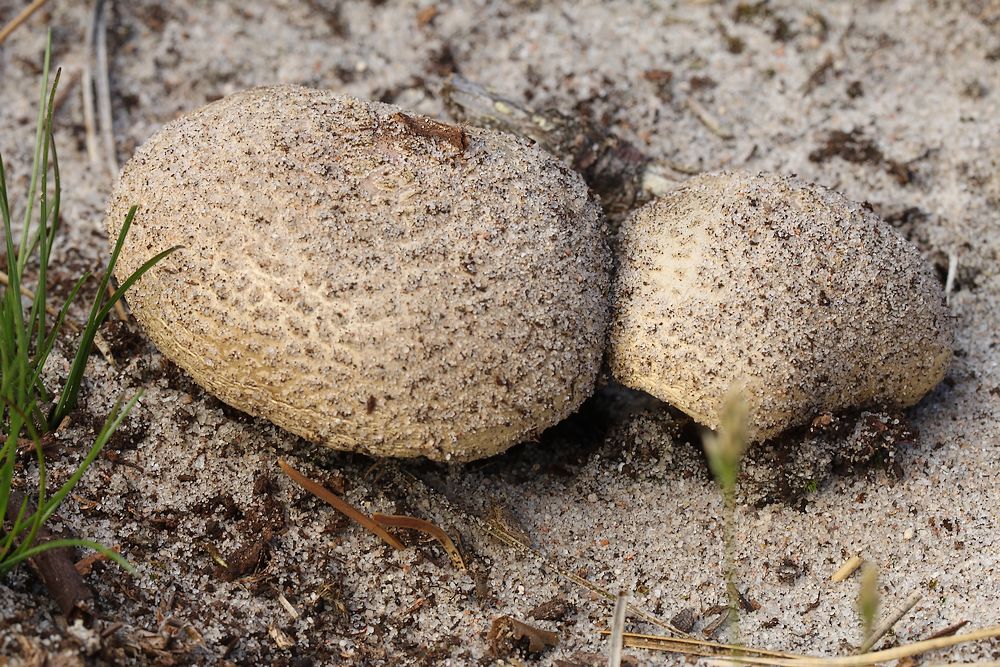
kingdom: Fungi
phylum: Basidiomycota
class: Agaricomycetes
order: Agaricales
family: Amanitaceae
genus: Amanita
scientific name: Amanita rubescens
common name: rødmende fluesvamp
